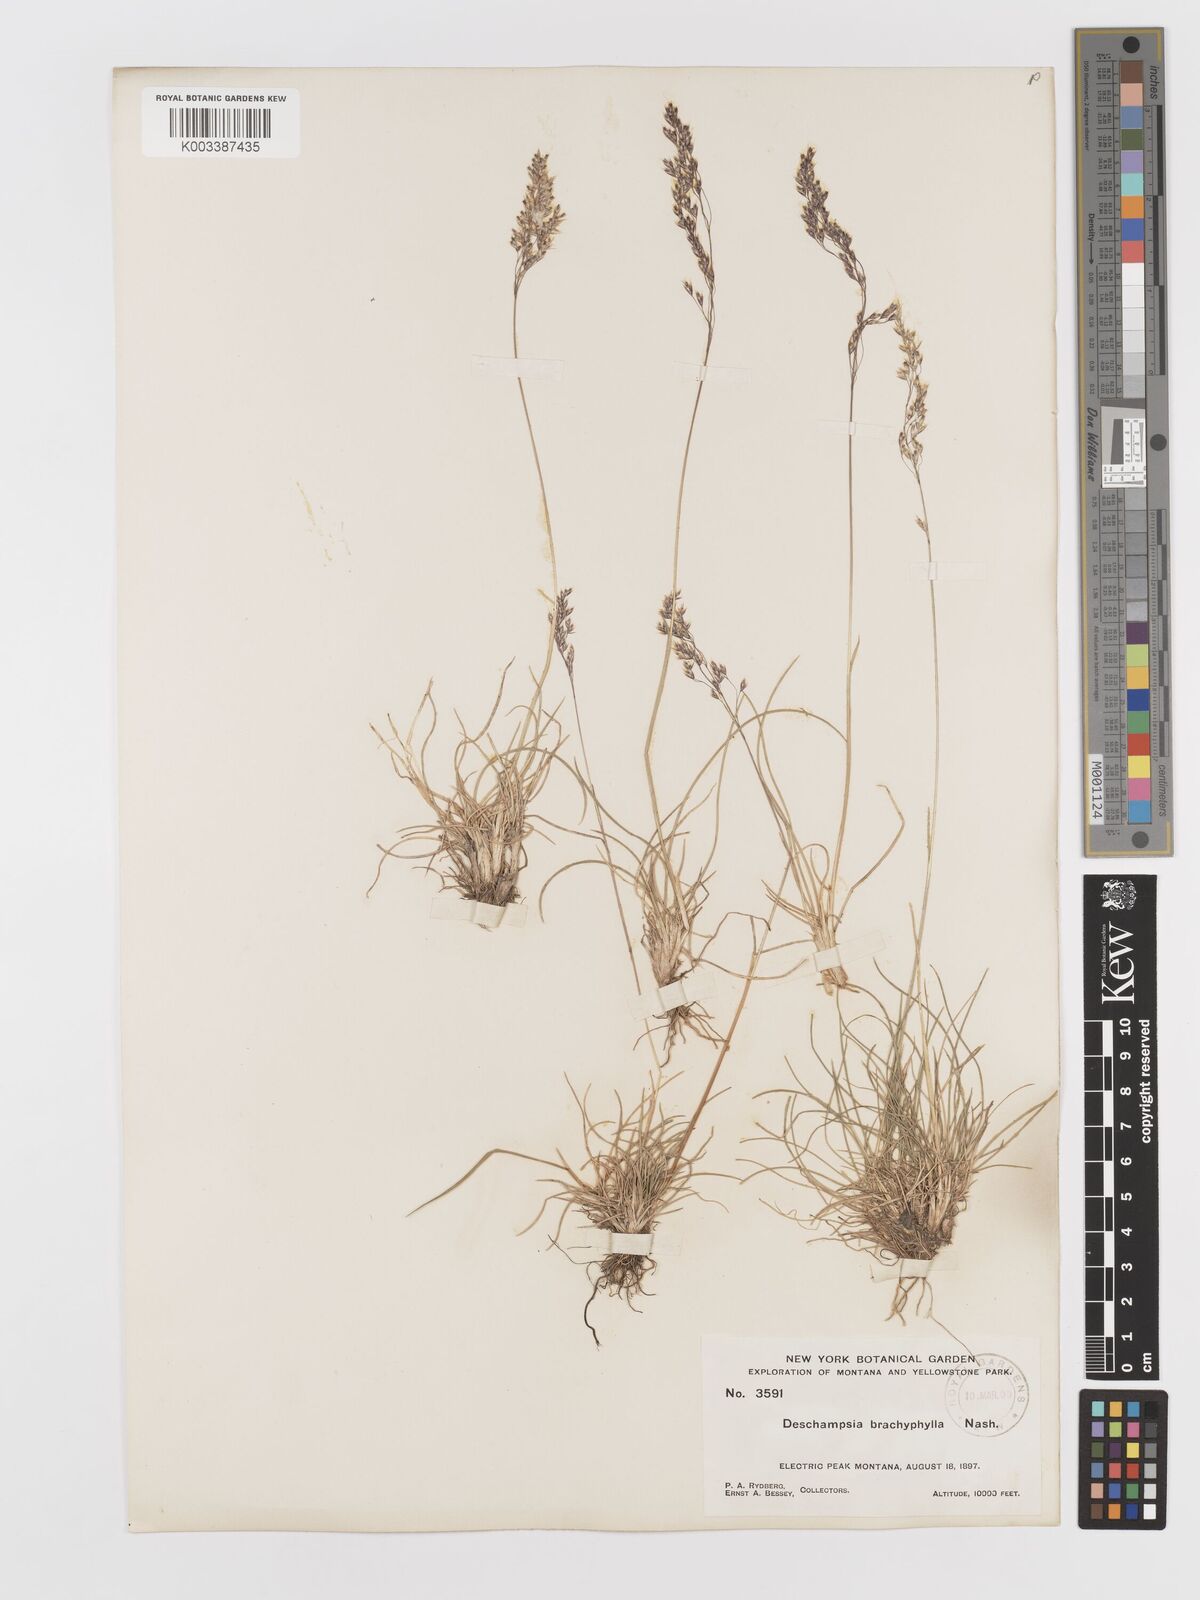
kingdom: Plantae
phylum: Tracheophyta
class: Liliopsida
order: Poales
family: Poaceae
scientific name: Poaceae
